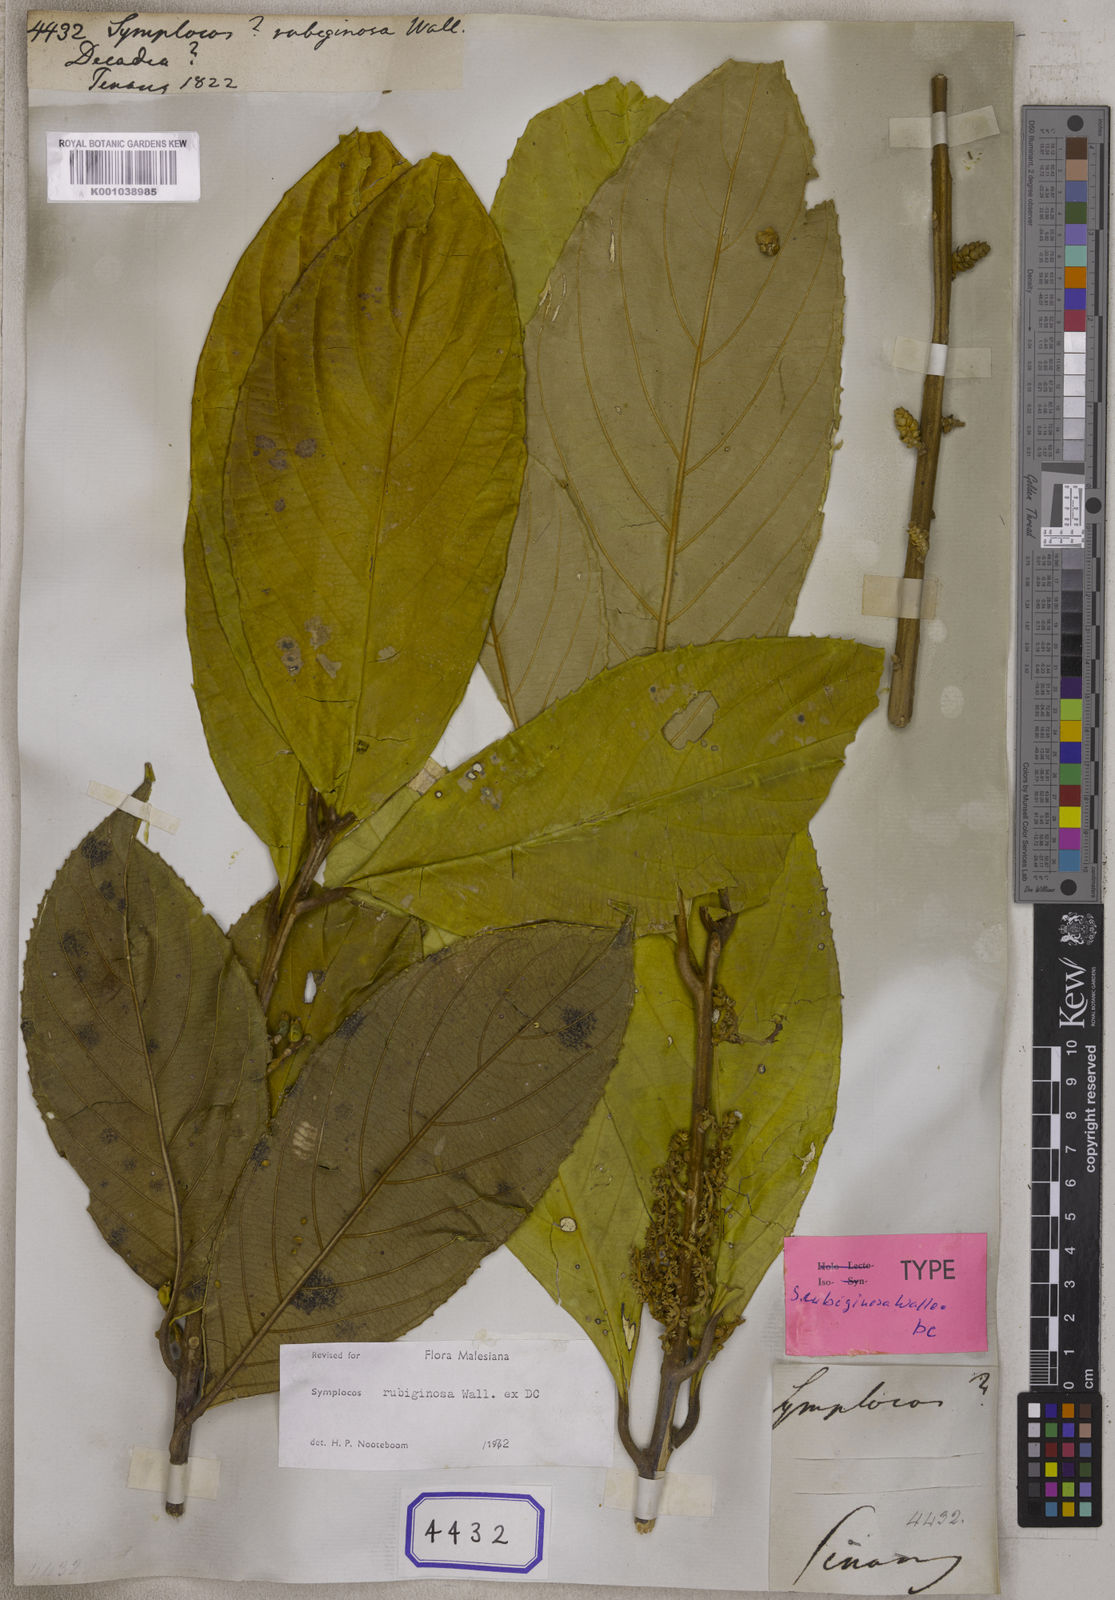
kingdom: Plantae
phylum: Tracheophyta
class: Magnoliopsida
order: Ericales
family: Symplocaceae
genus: Symplocos
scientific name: Symplocos rubiginosa
